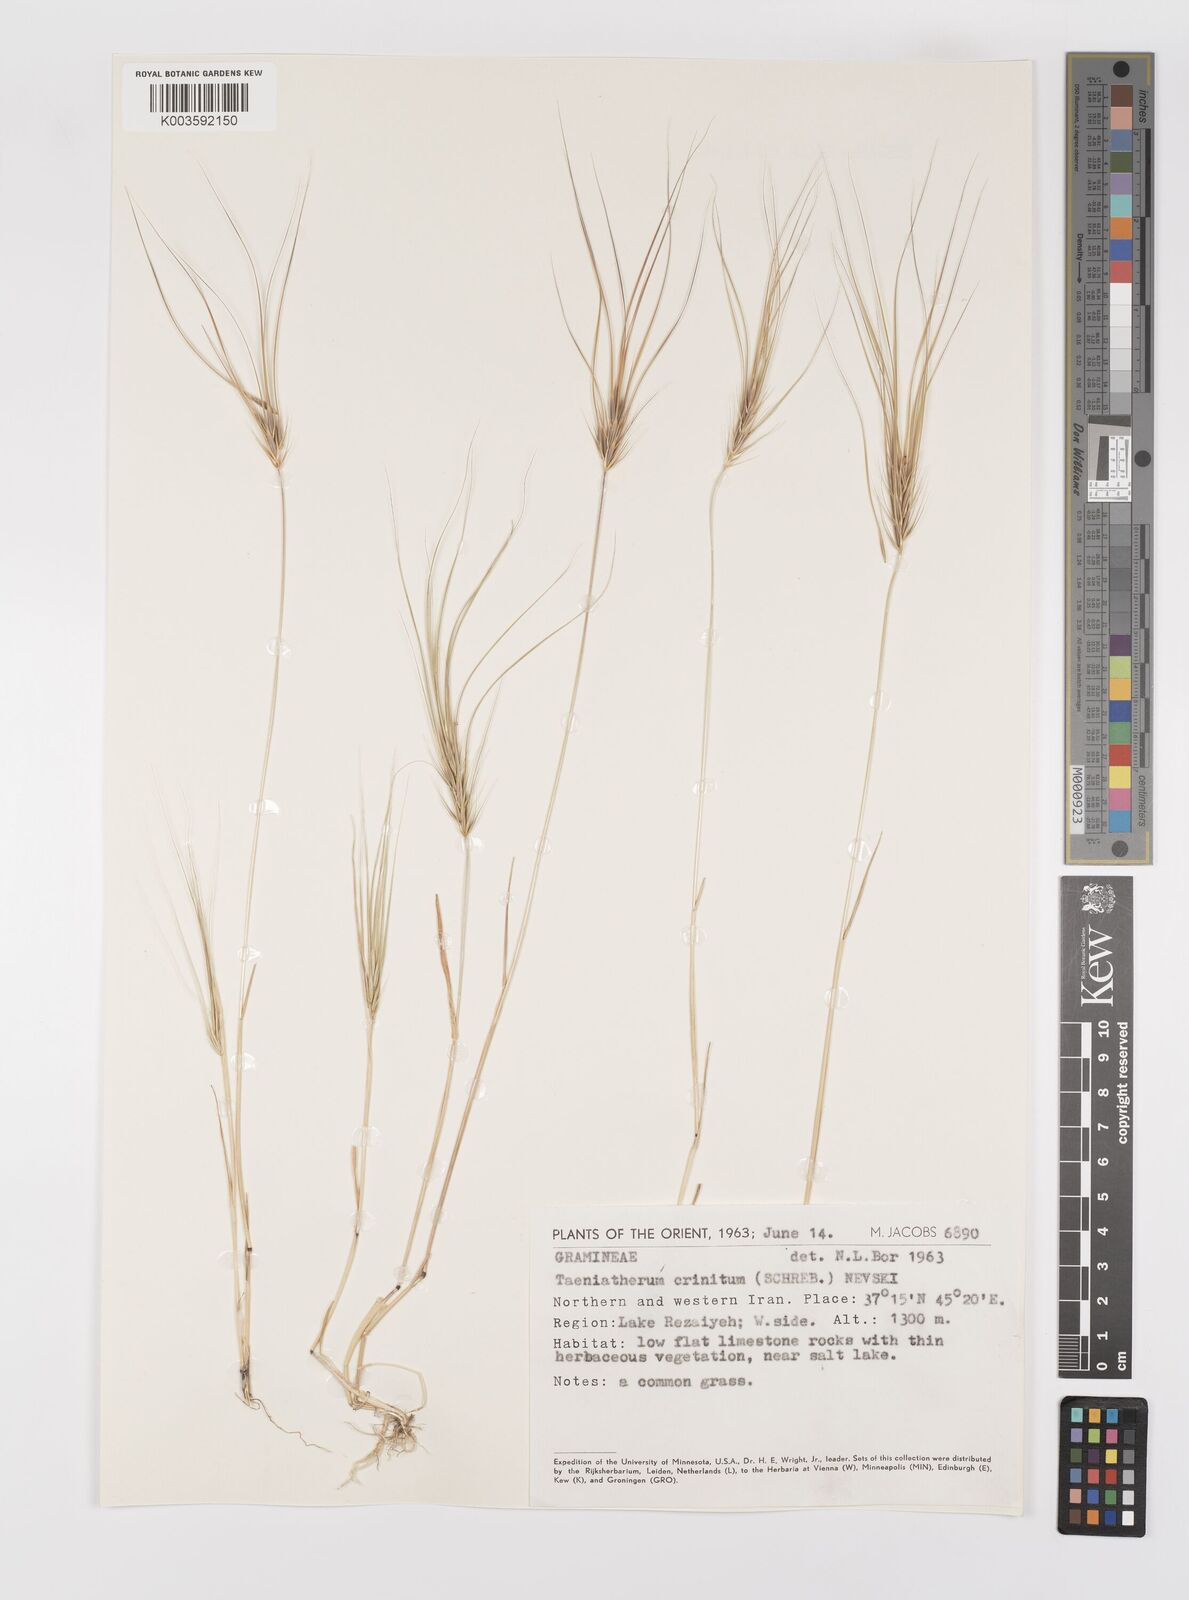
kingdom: Plantae
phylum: Tracheophyta
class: Liliopsida
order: Poales
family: Poaceae
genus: Taeniatherum
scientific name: Taeniatherum caput-medusae
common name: Medusahead
